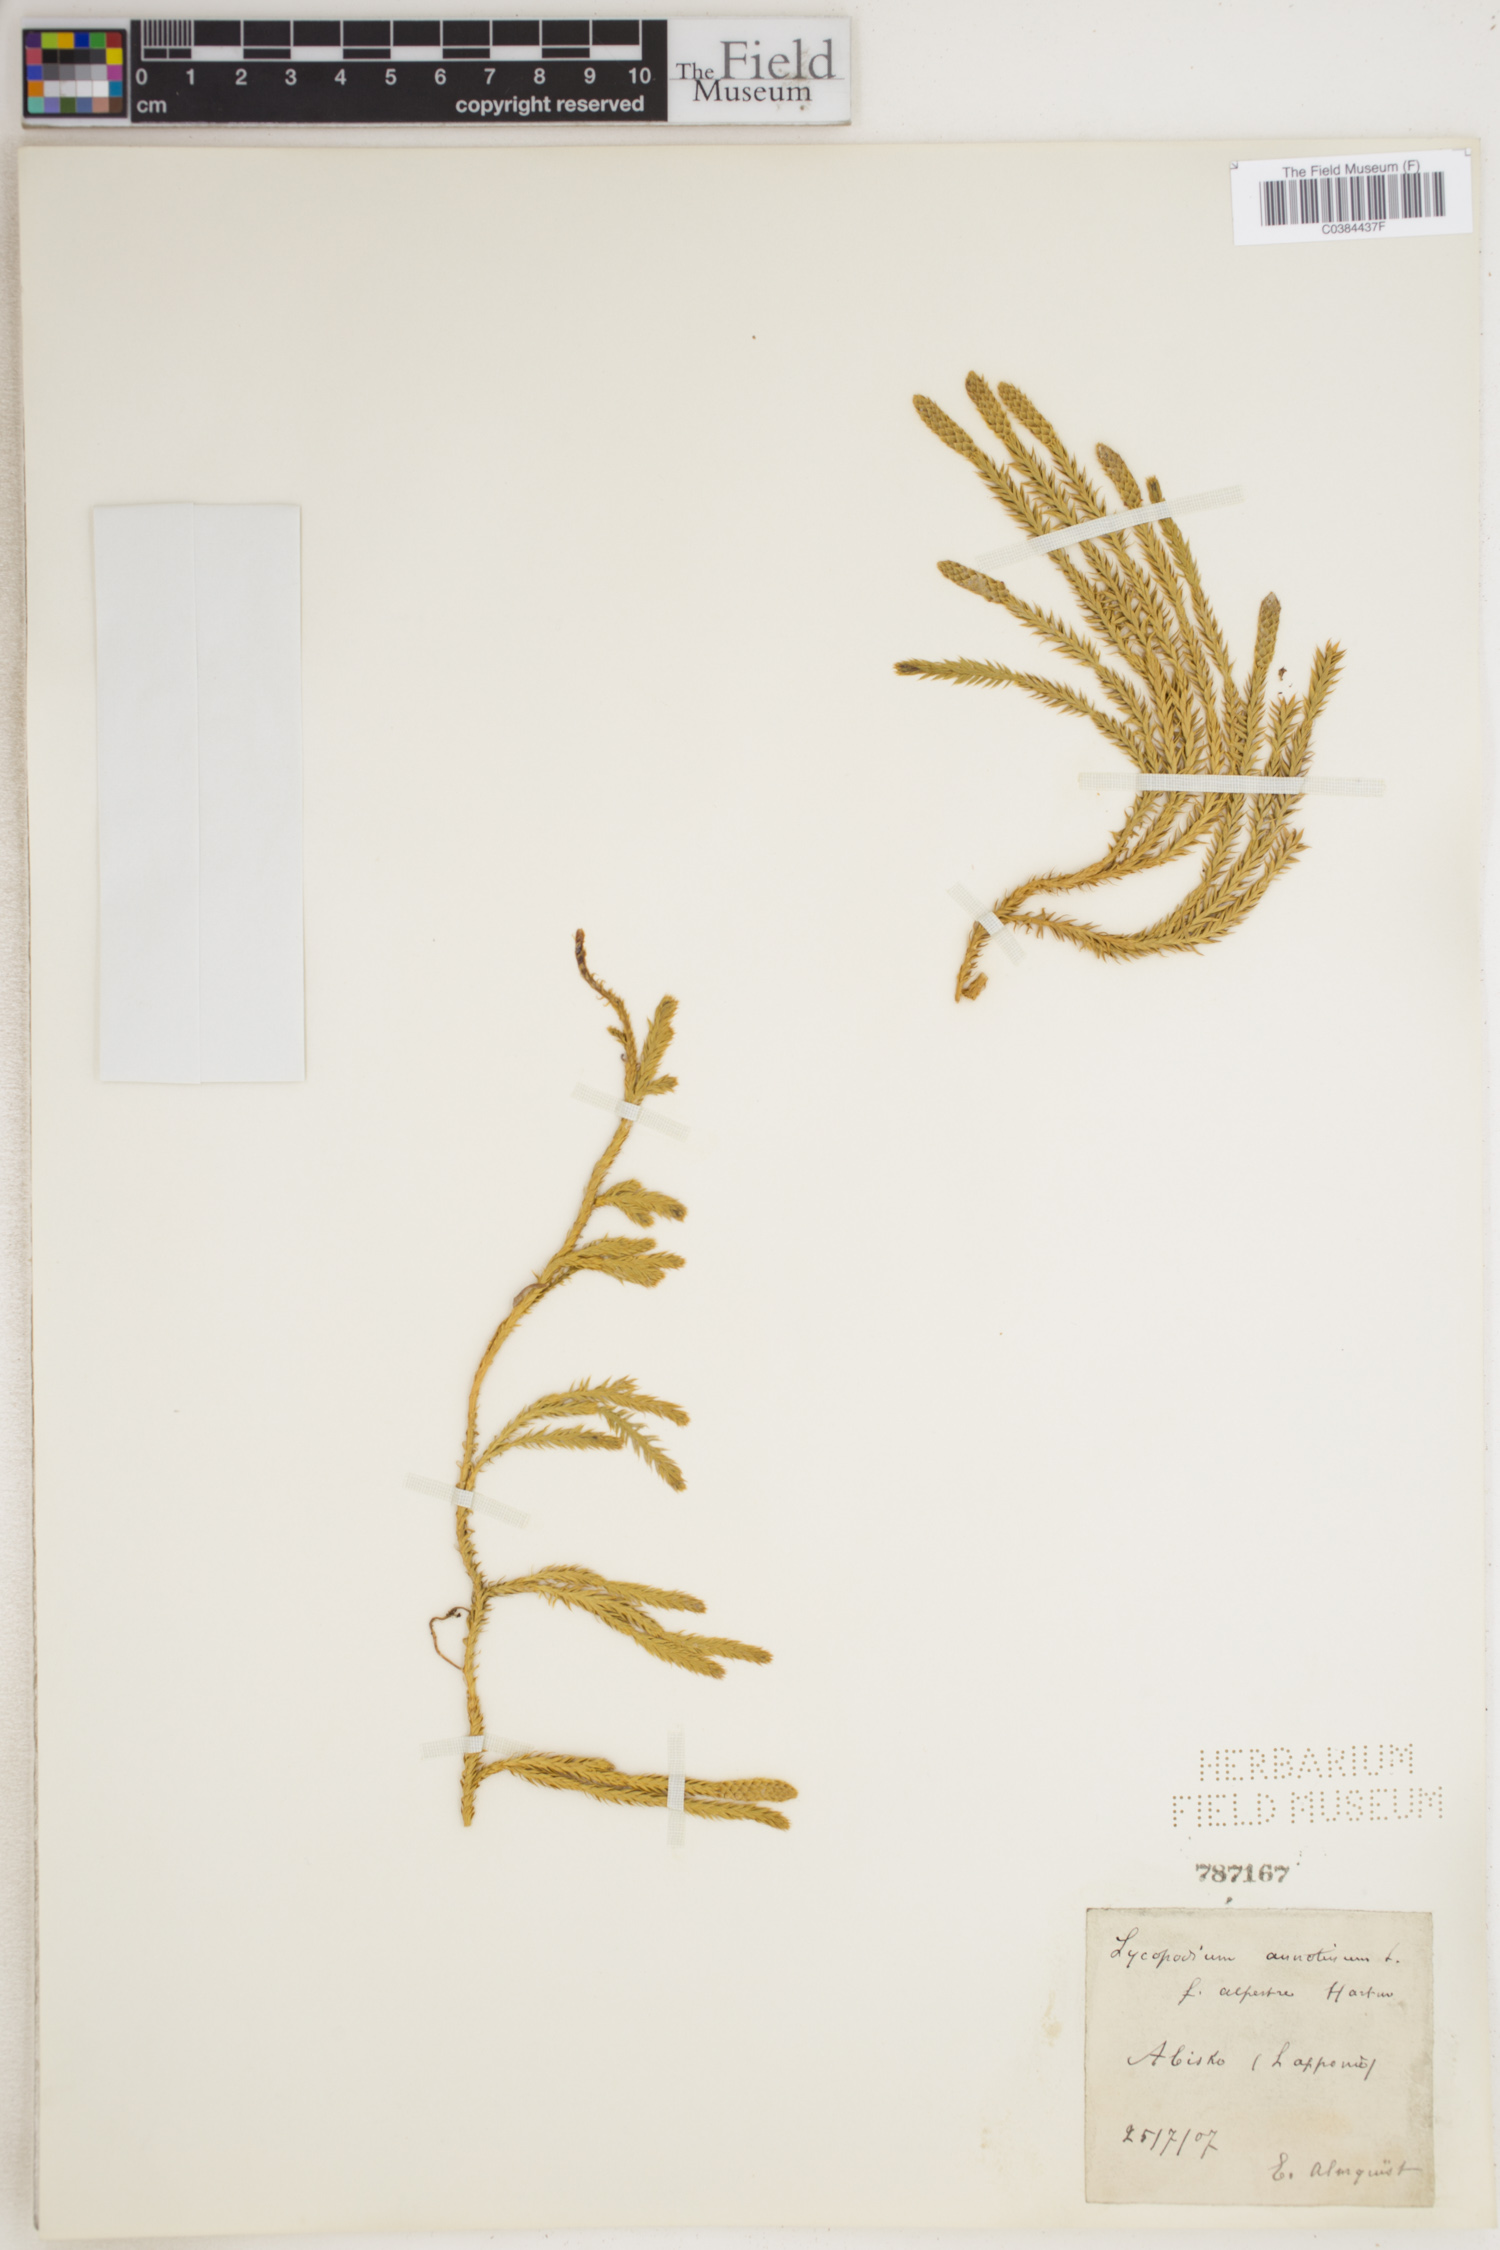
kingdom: Plantae
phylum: Tracheophyta
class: Lycopodiopsida
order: Lycopodiales
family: Lycopodiaceae
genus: Spinulum
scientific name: Spinulum annotinum
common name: Interrupted club-moss
